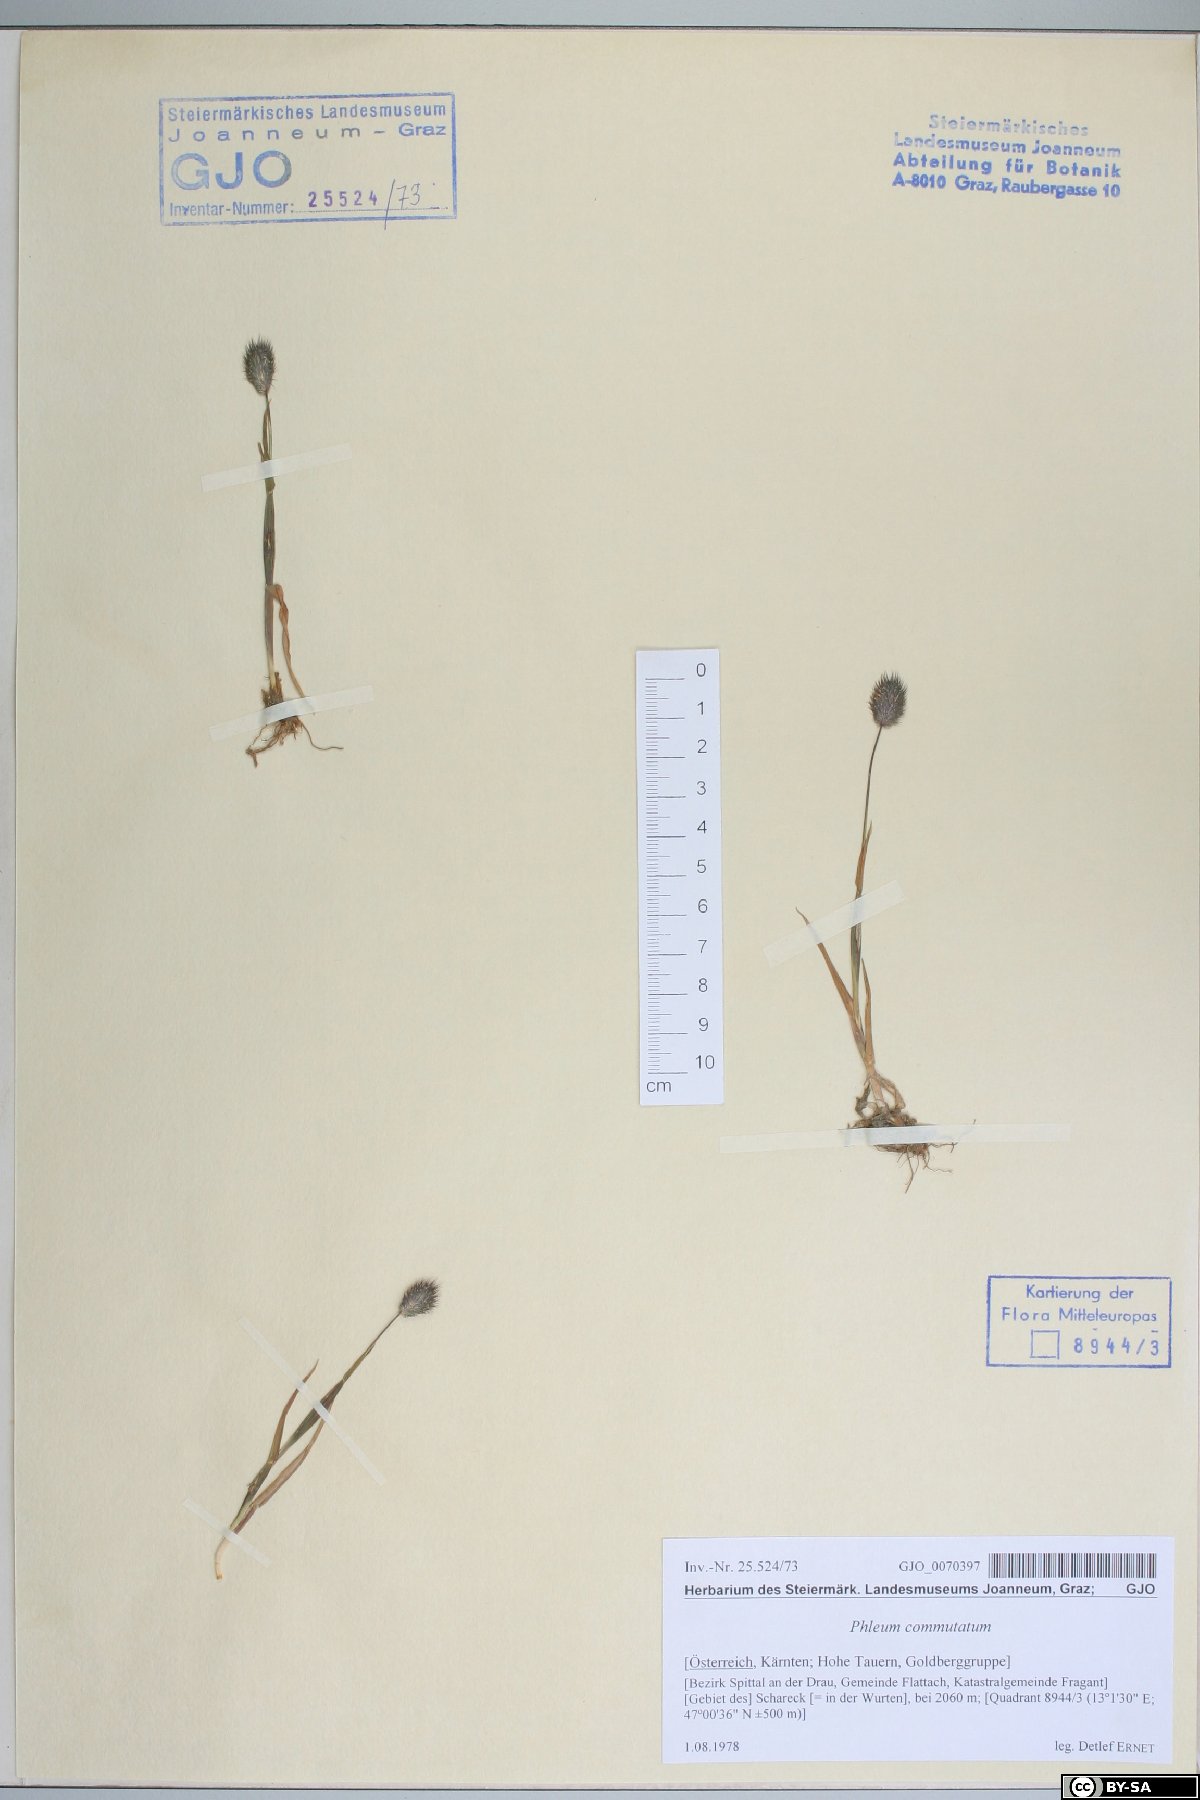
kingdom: Plantae
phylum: Tracheophyta
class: Liliopsida
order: Poales
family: Poaceae
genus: Phleum
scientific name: Phleum alpinum
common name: Alpine cat's-tail
